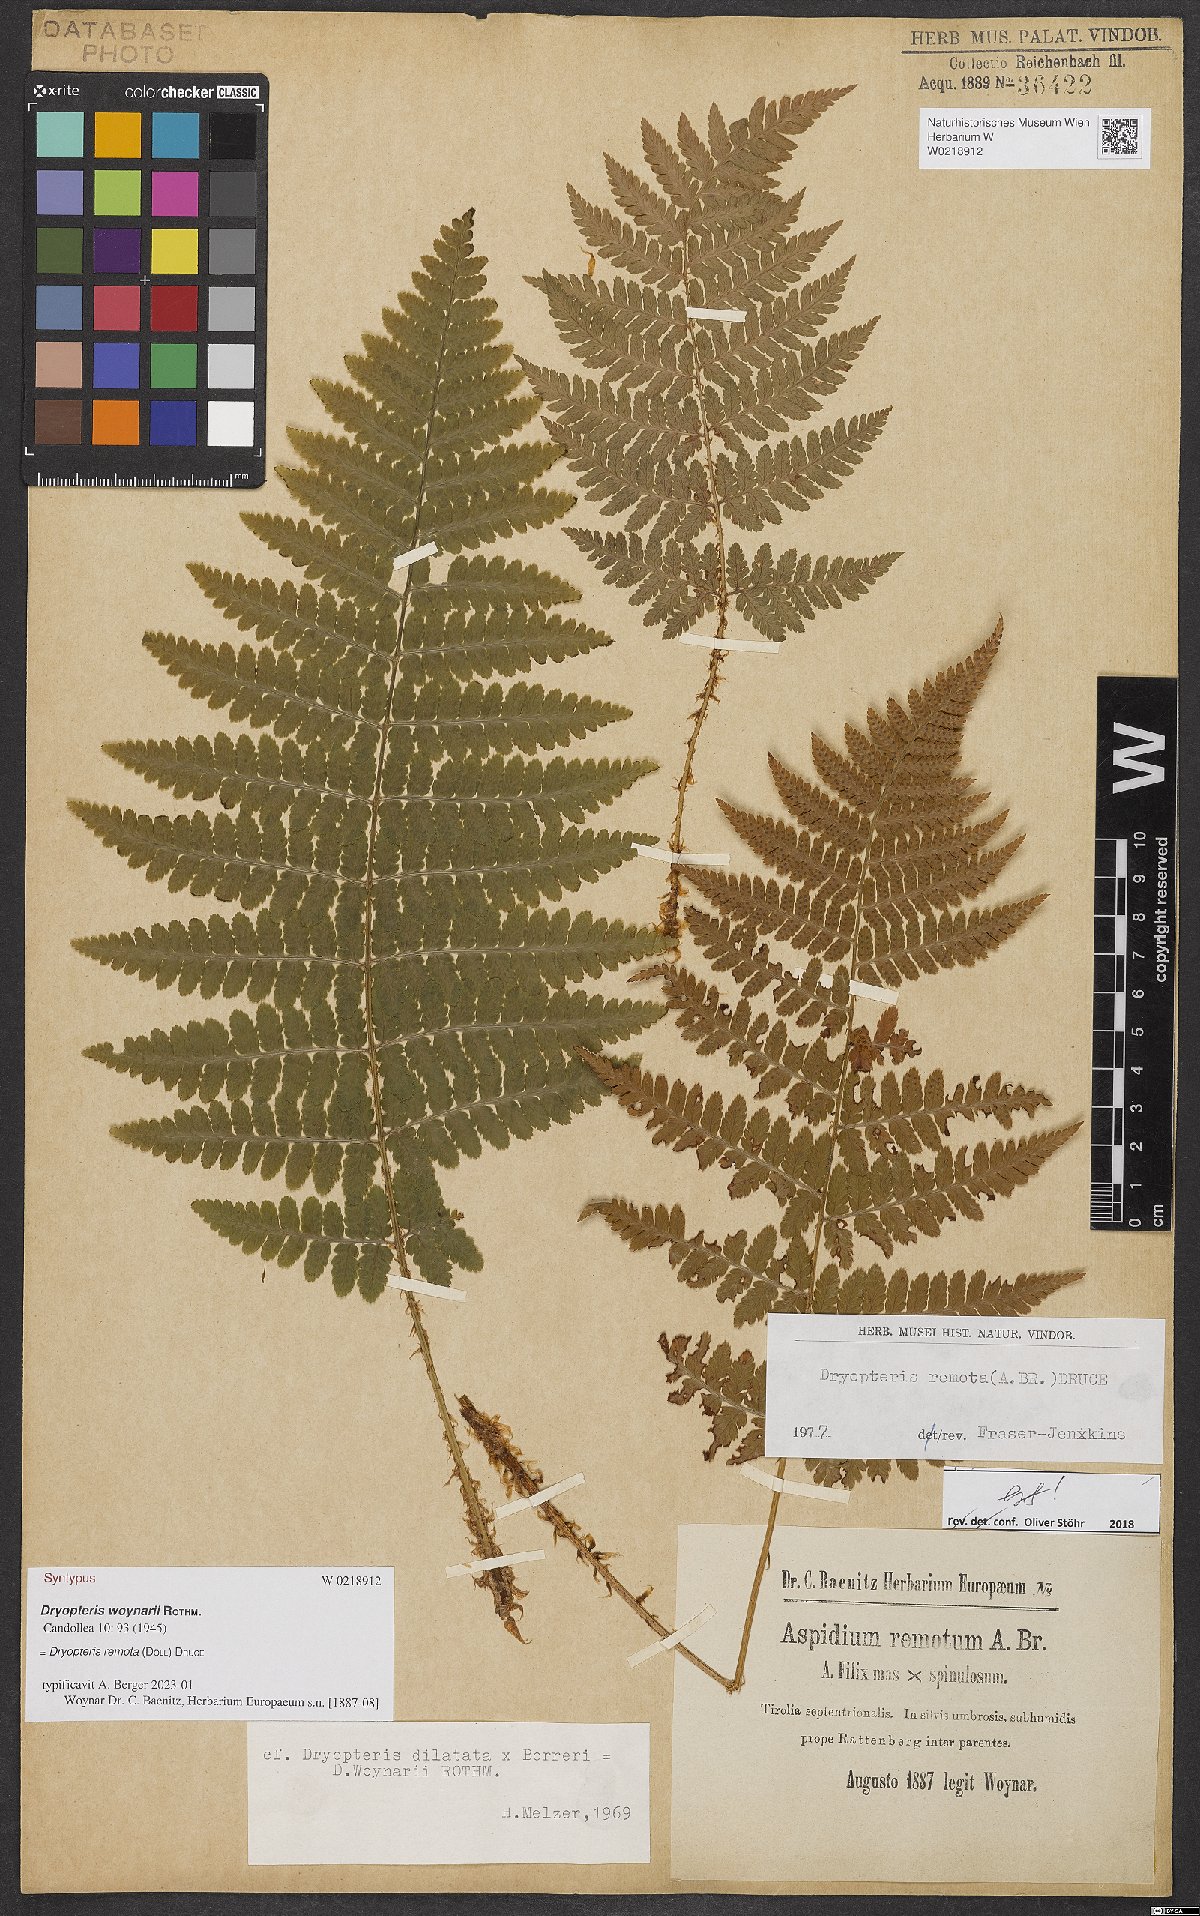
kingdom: Plantae
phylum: Tracheophyta
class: Polypodiopsida
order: Polypodiales
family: Dryopteridaceae
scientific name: Dryopteridaceae
